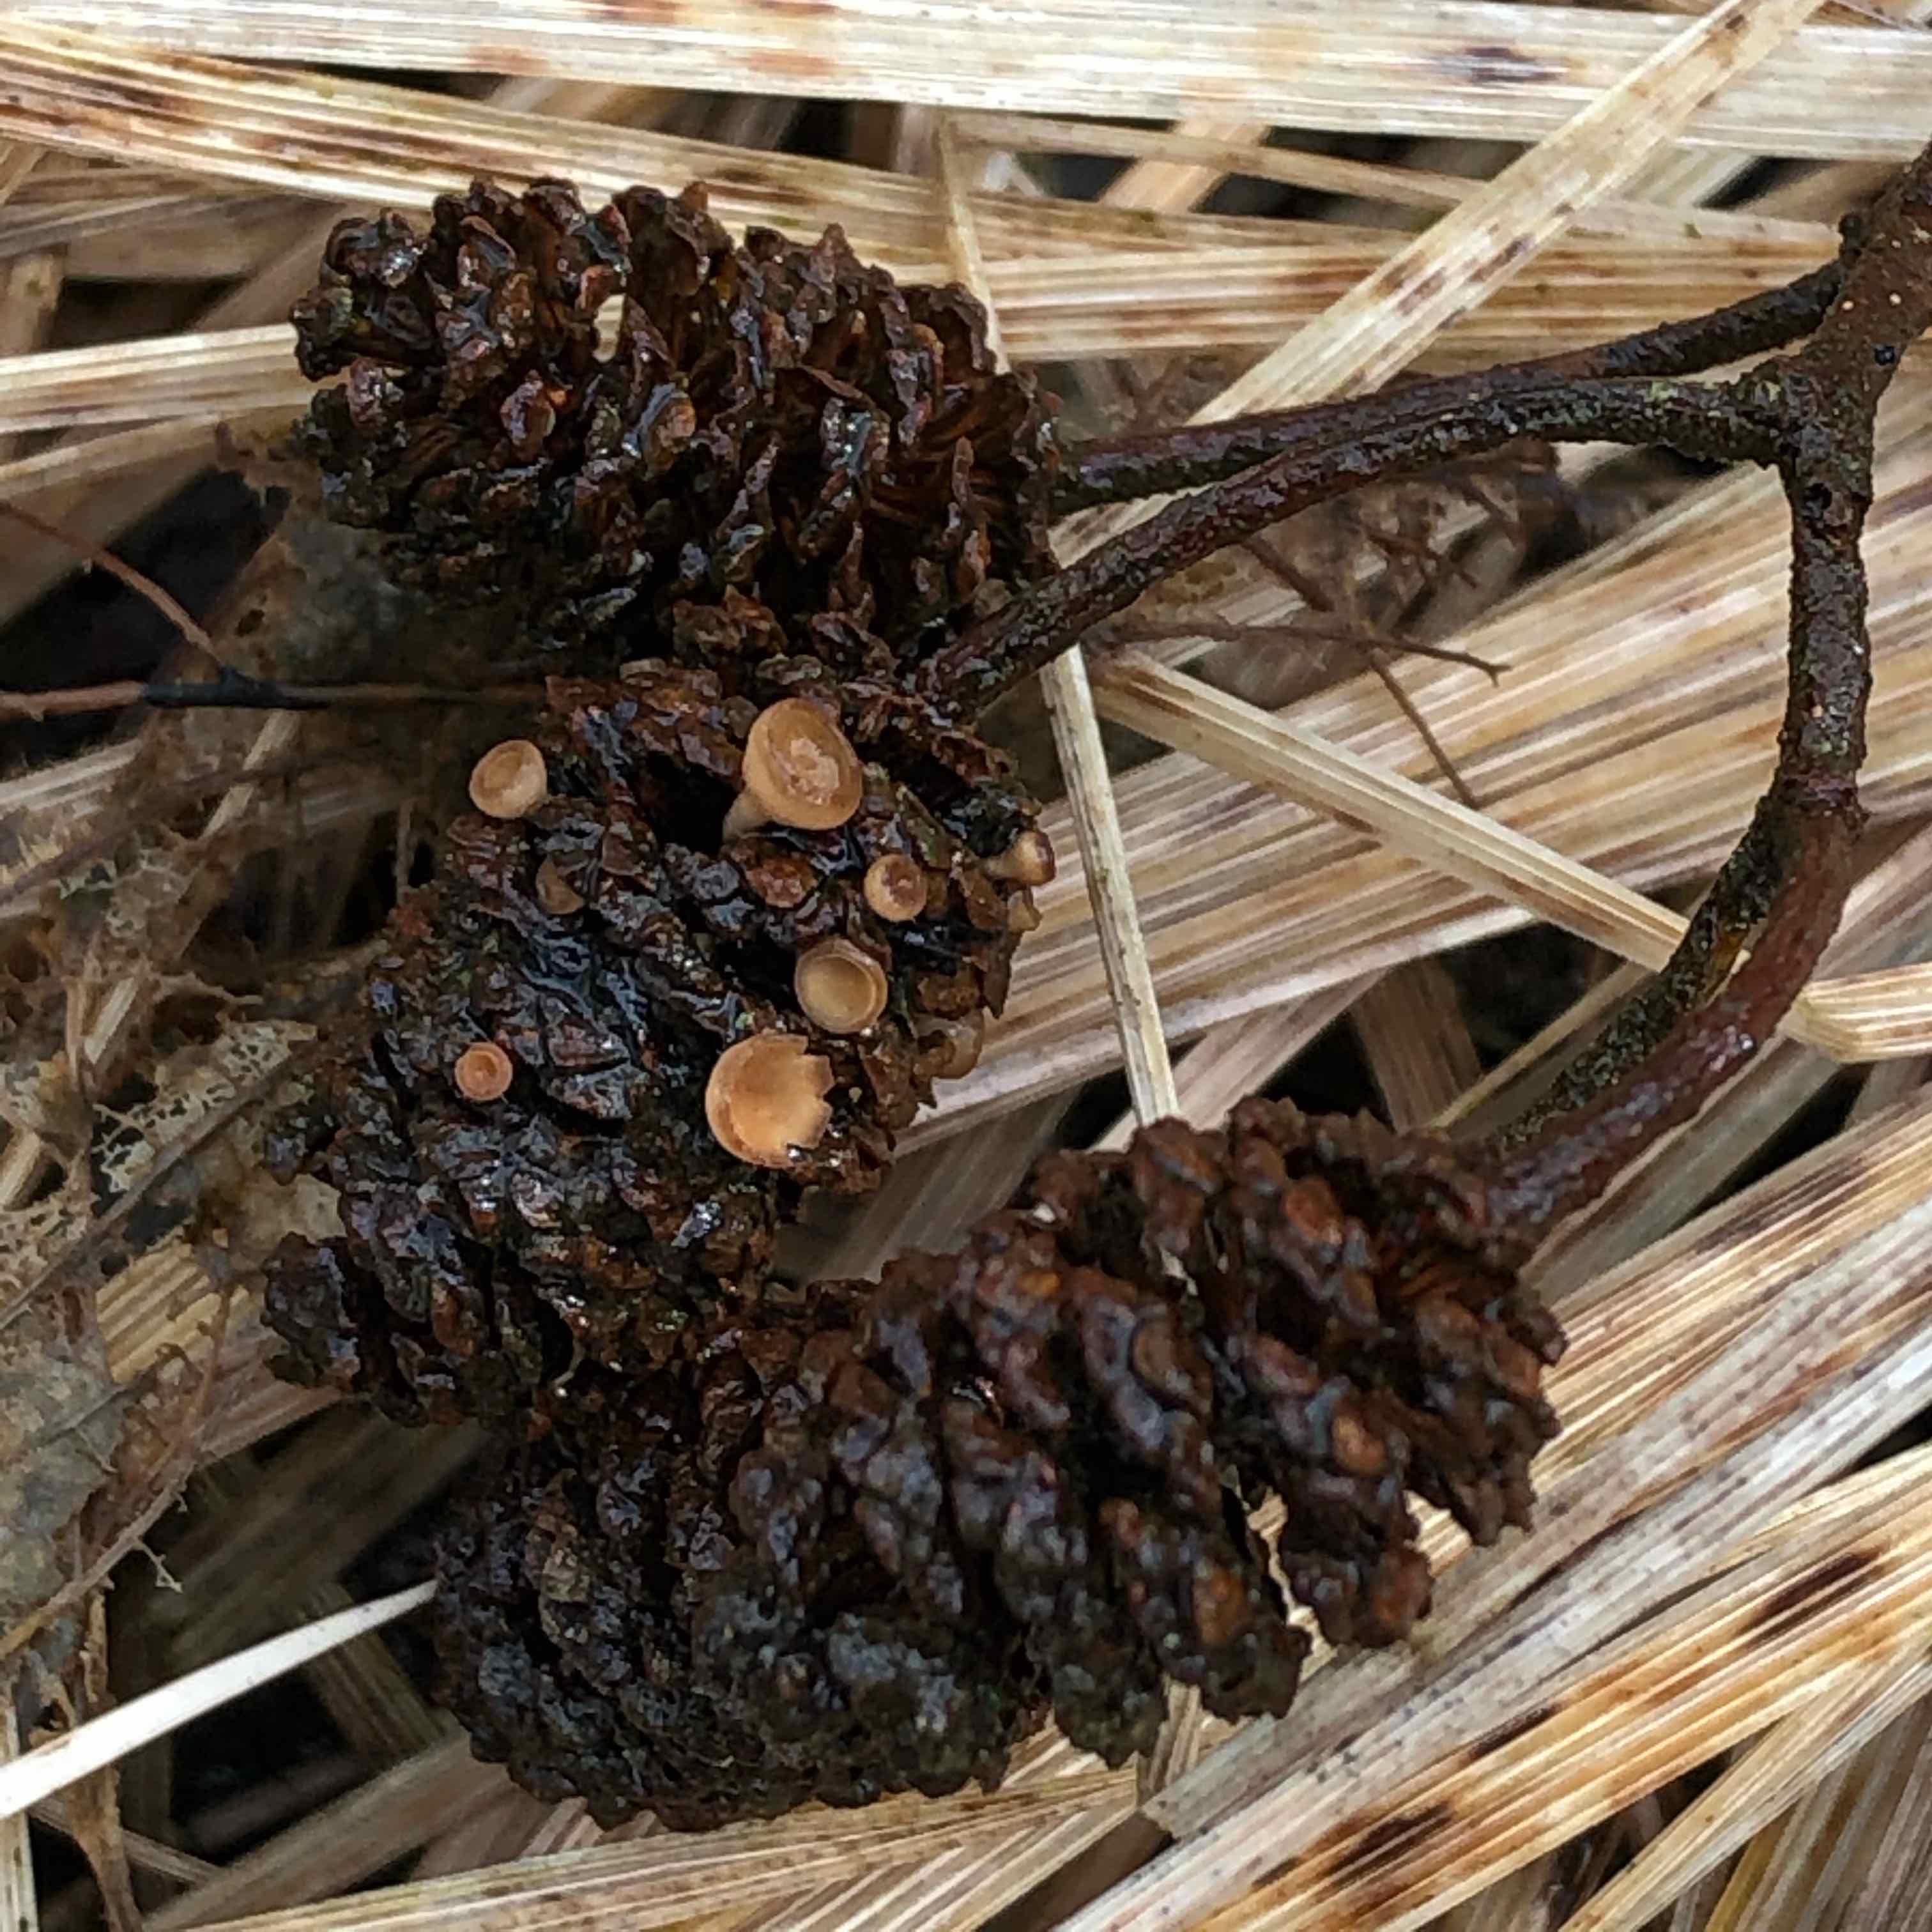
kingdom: Fungi
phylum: Ascomycota
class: Leotiomycetes
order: Helotiales
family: Sclerotiniaceae
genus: Ciboria
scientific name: Ciboria viridifusca
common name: ellekogle-knoldskive
